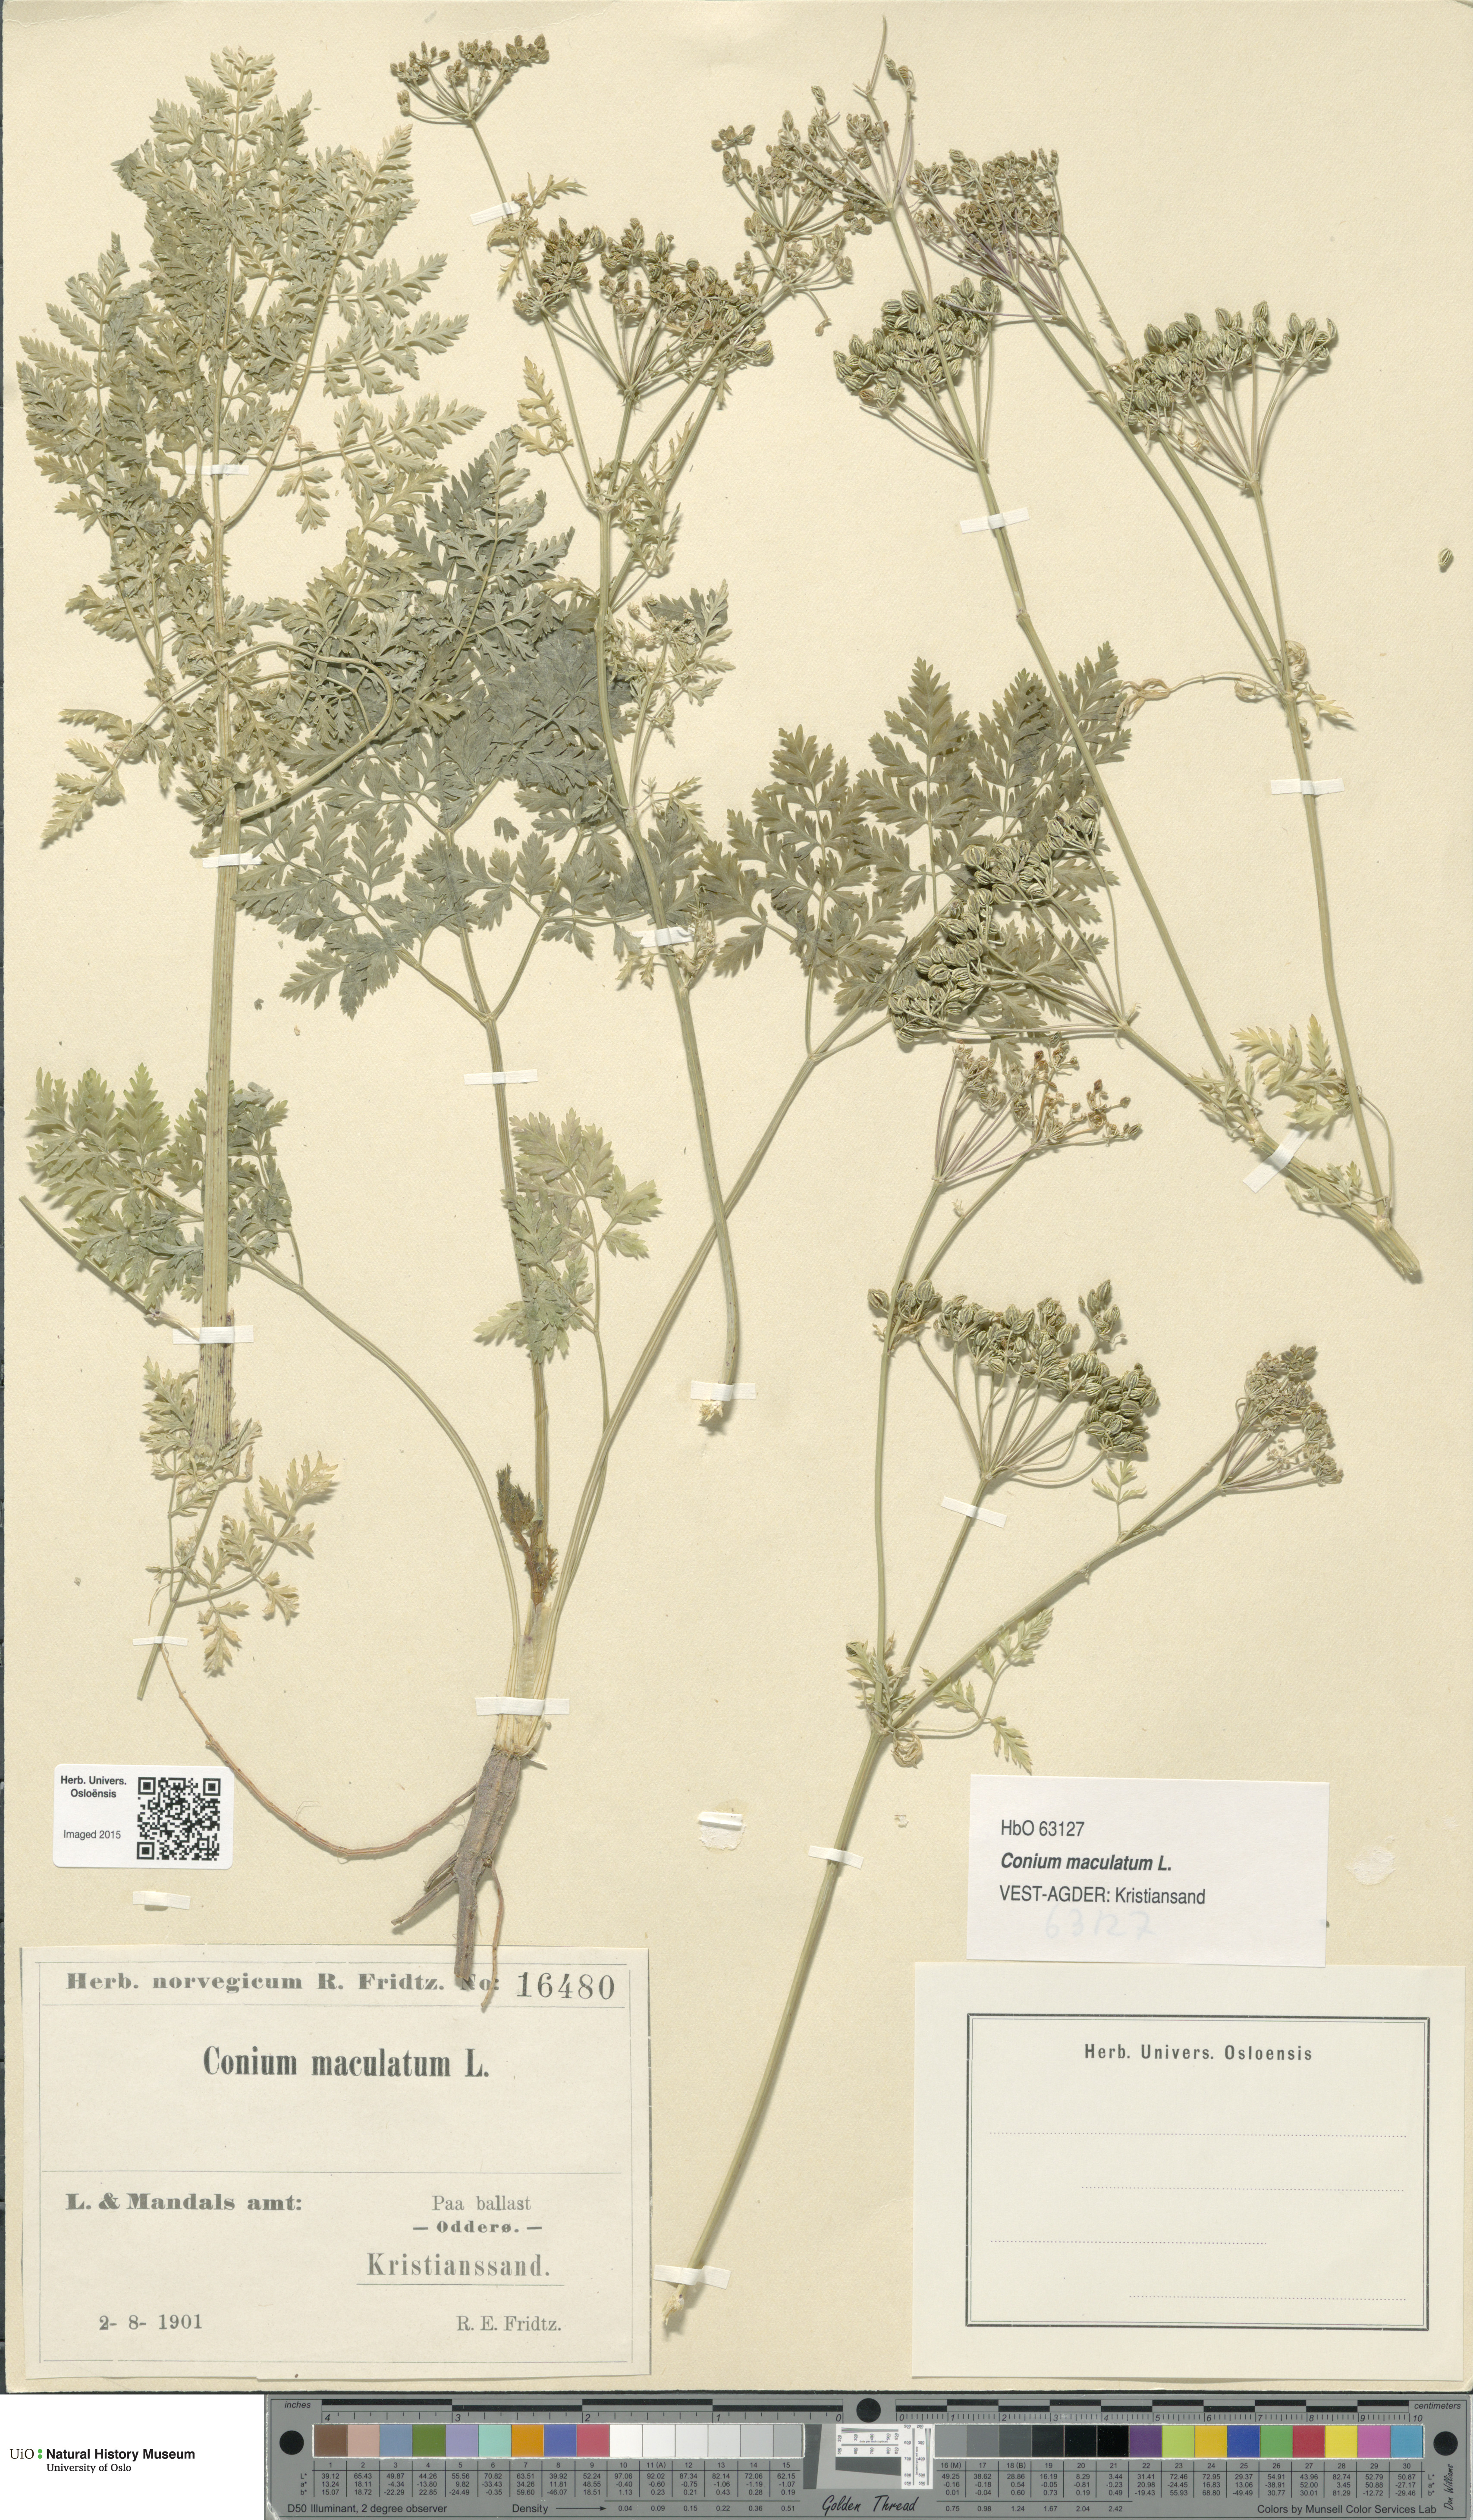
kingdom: Plantae
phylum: Tracheophyta
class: Magnoliopsida
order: Apiales
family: Apiaceae
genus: Conium
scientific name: Conium maculatum
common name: Hemlock
